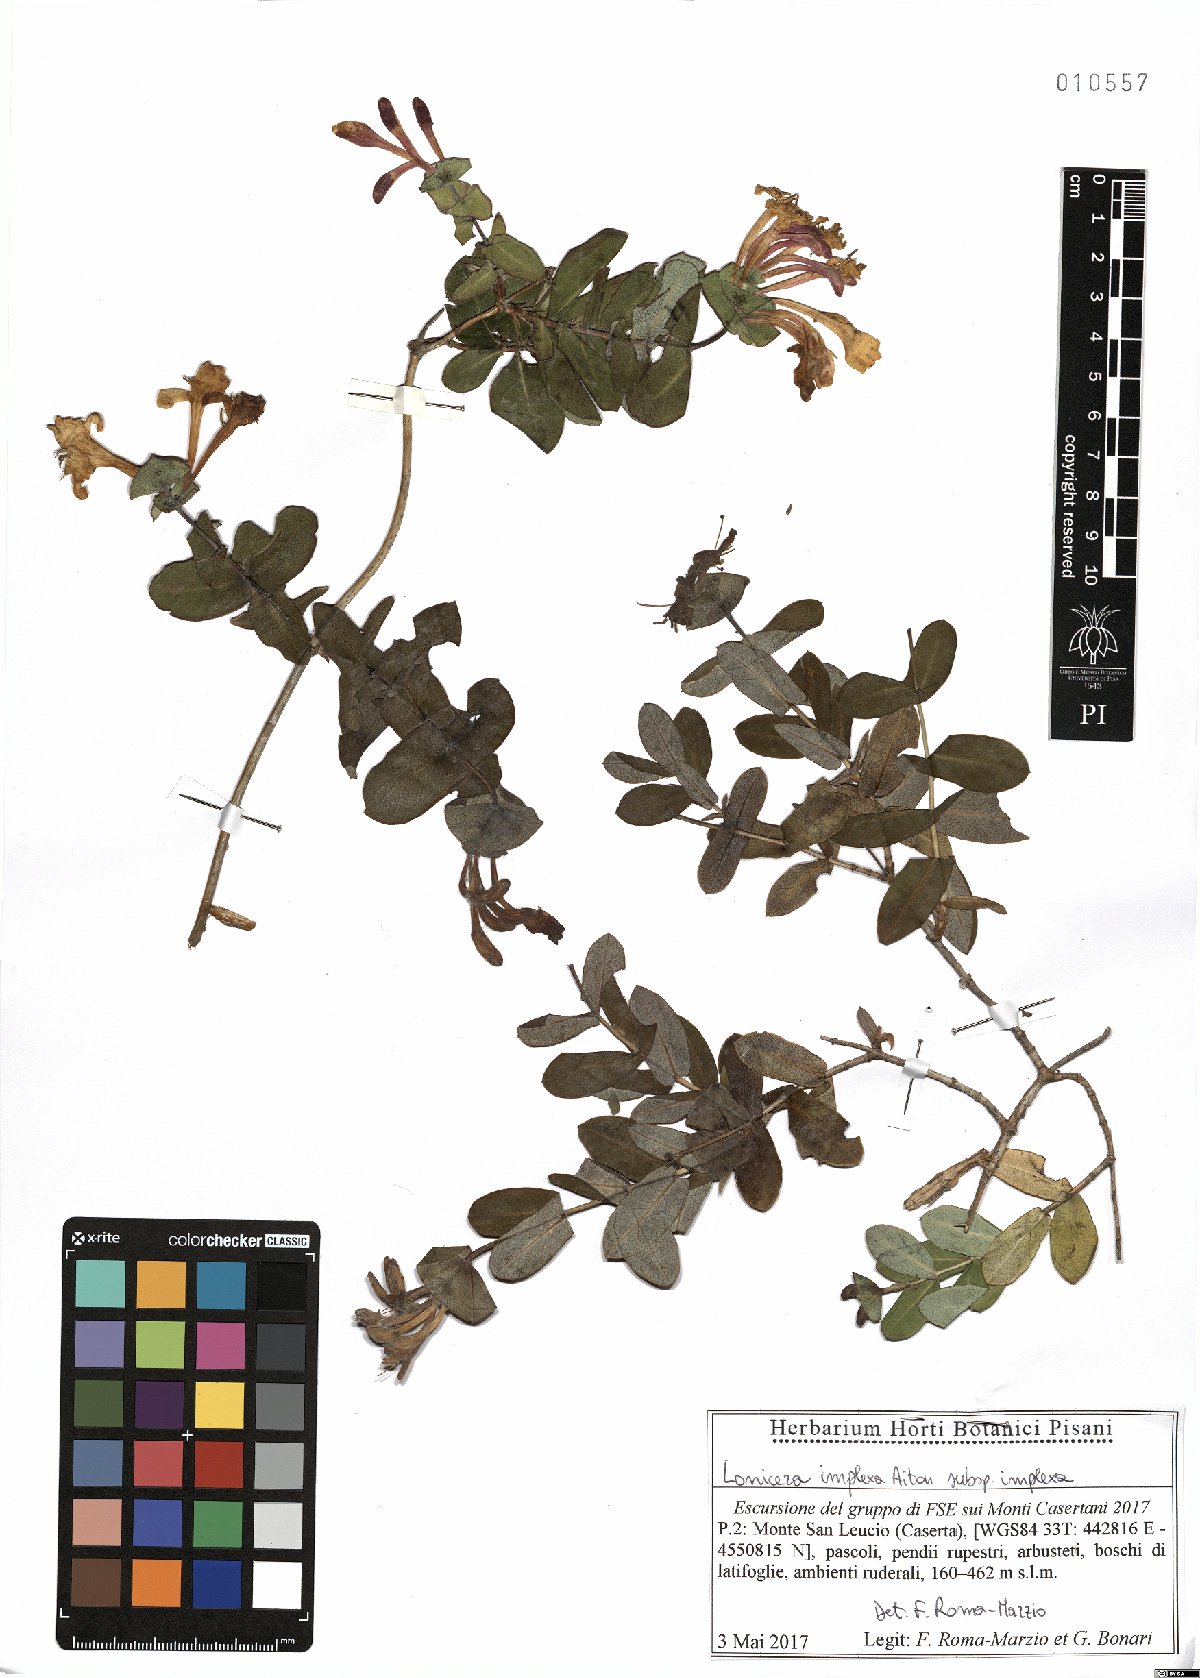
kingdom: Plantae
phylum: Tracheophyta
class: Magnoliopsida
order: Dipsacales
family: Caprifoliaceae
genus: Lonicera
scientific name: Lonicera implexa
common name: Minorca honeysuckle
